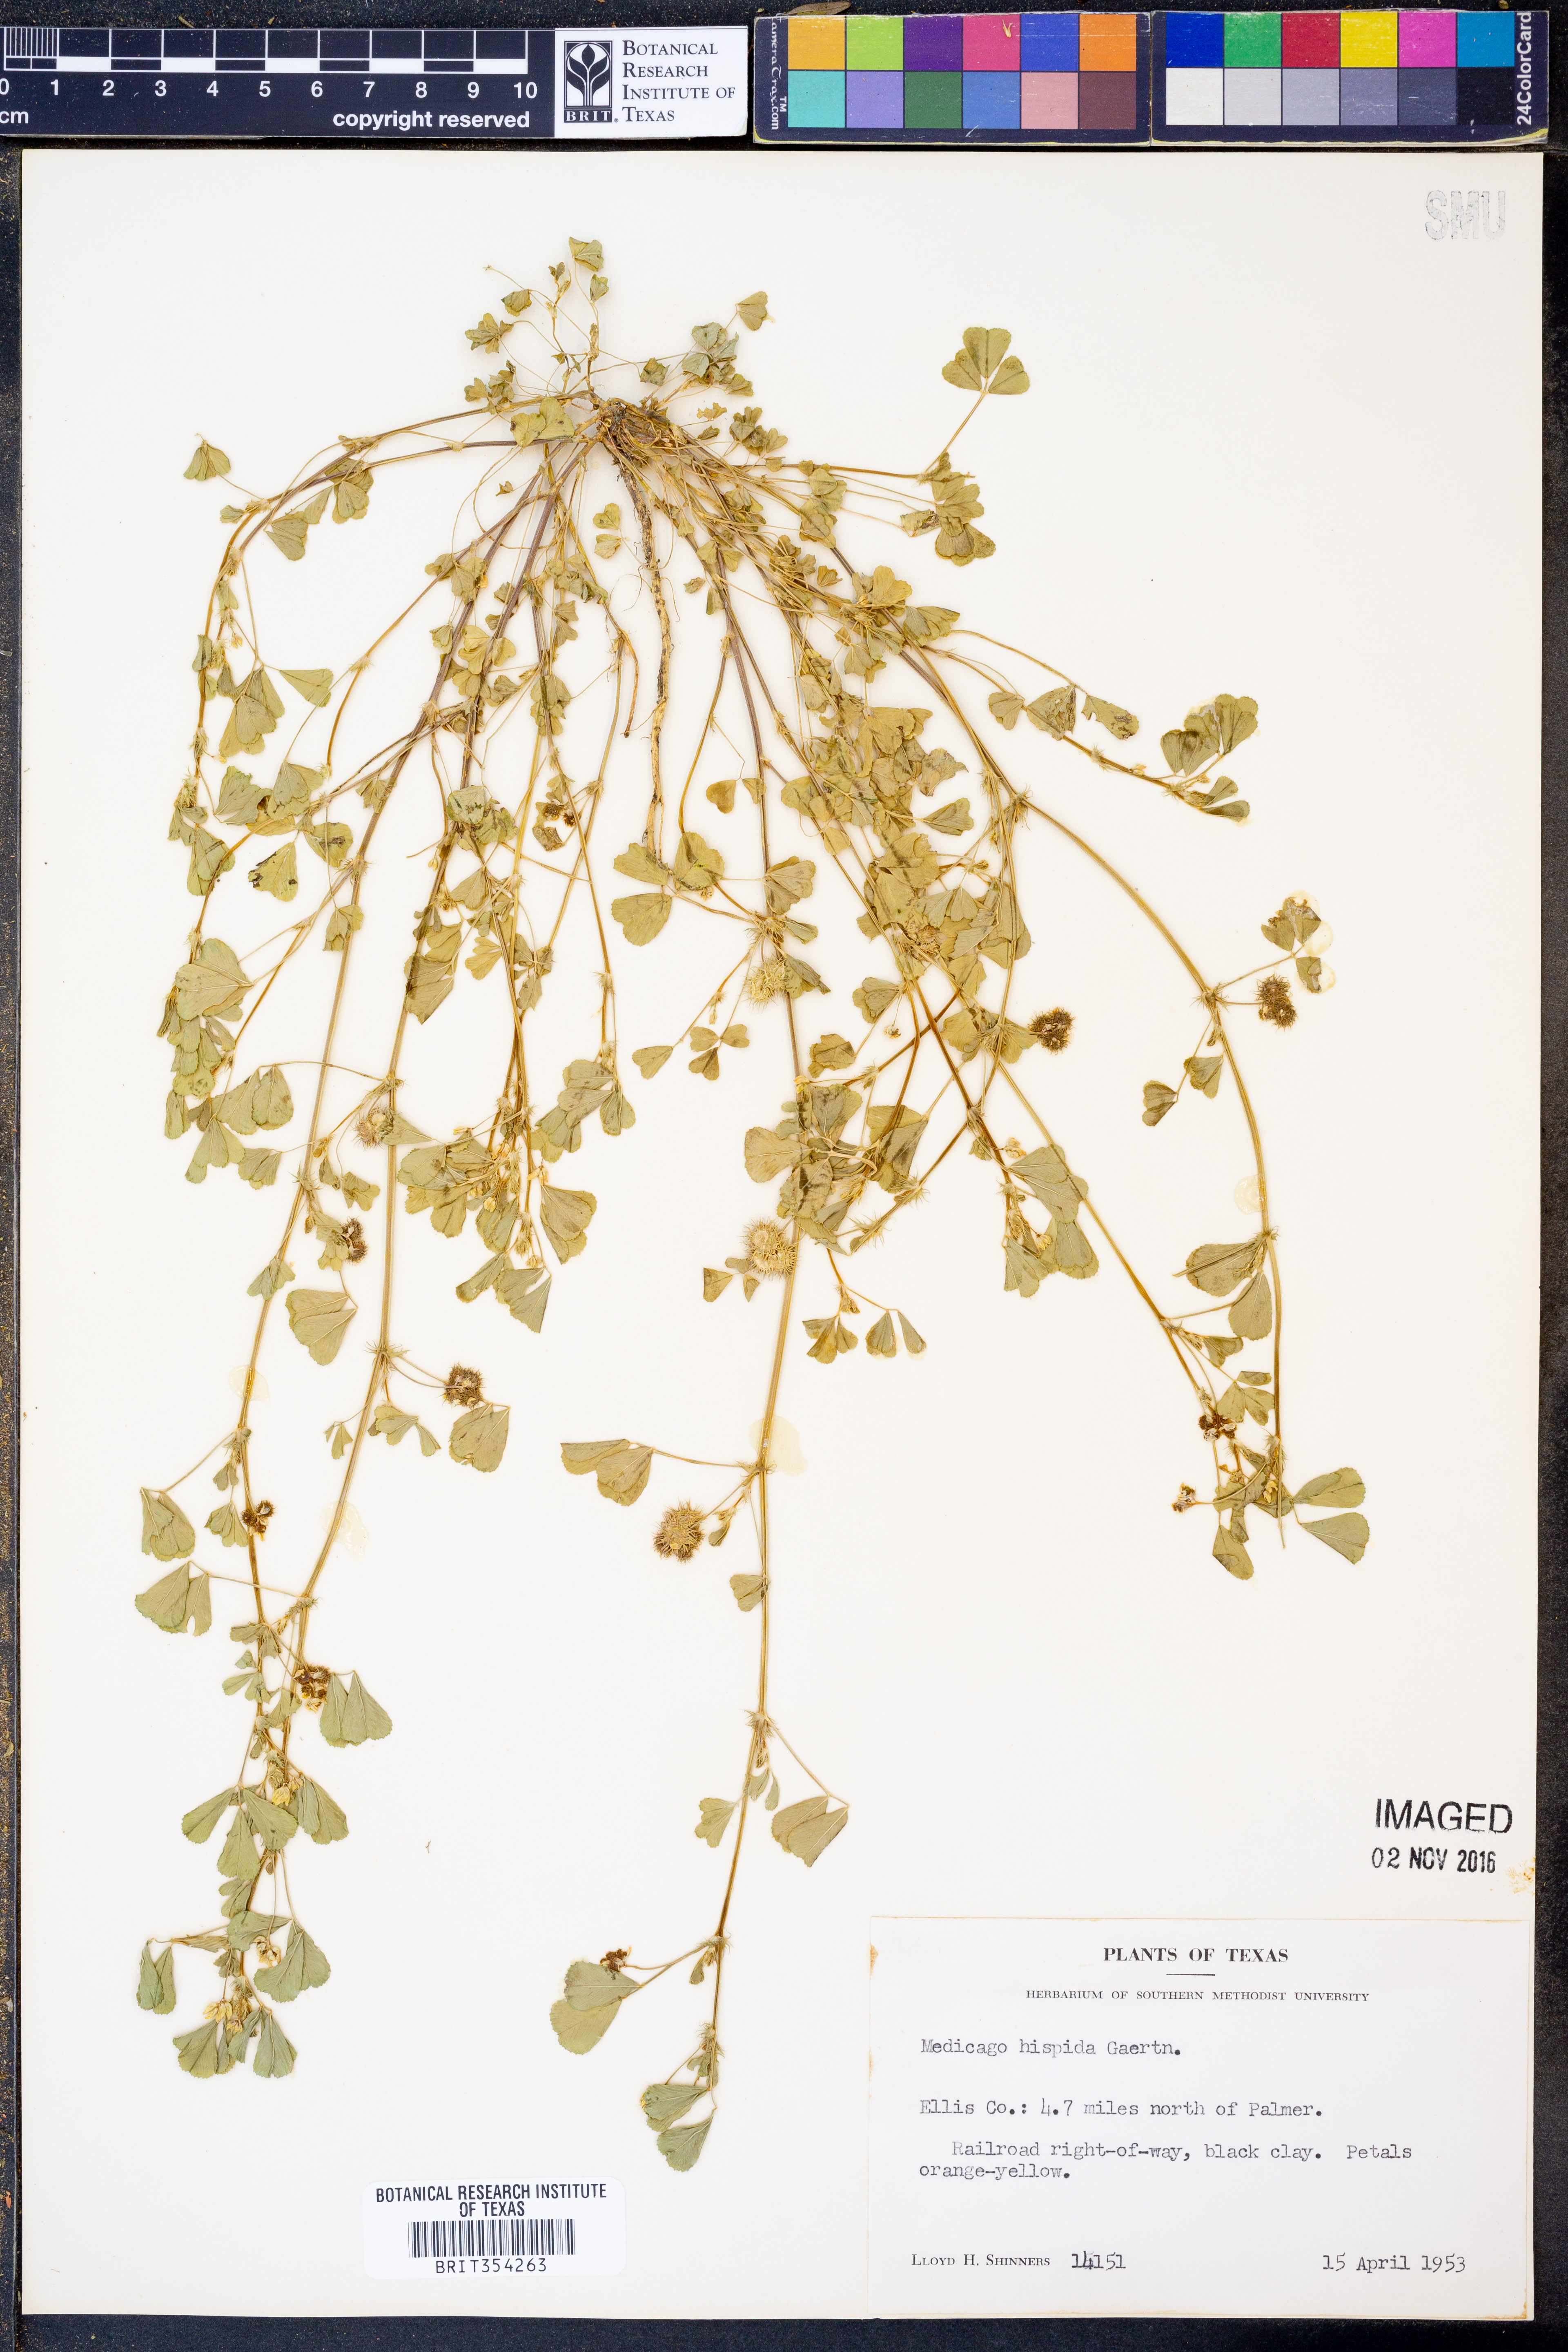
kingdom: Plantae
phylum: Tracheophyta
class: Magnoliopsida
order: Fabales
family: Fabaceae
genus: Medicago
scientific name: Medicago polymorpha
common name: Burclover
